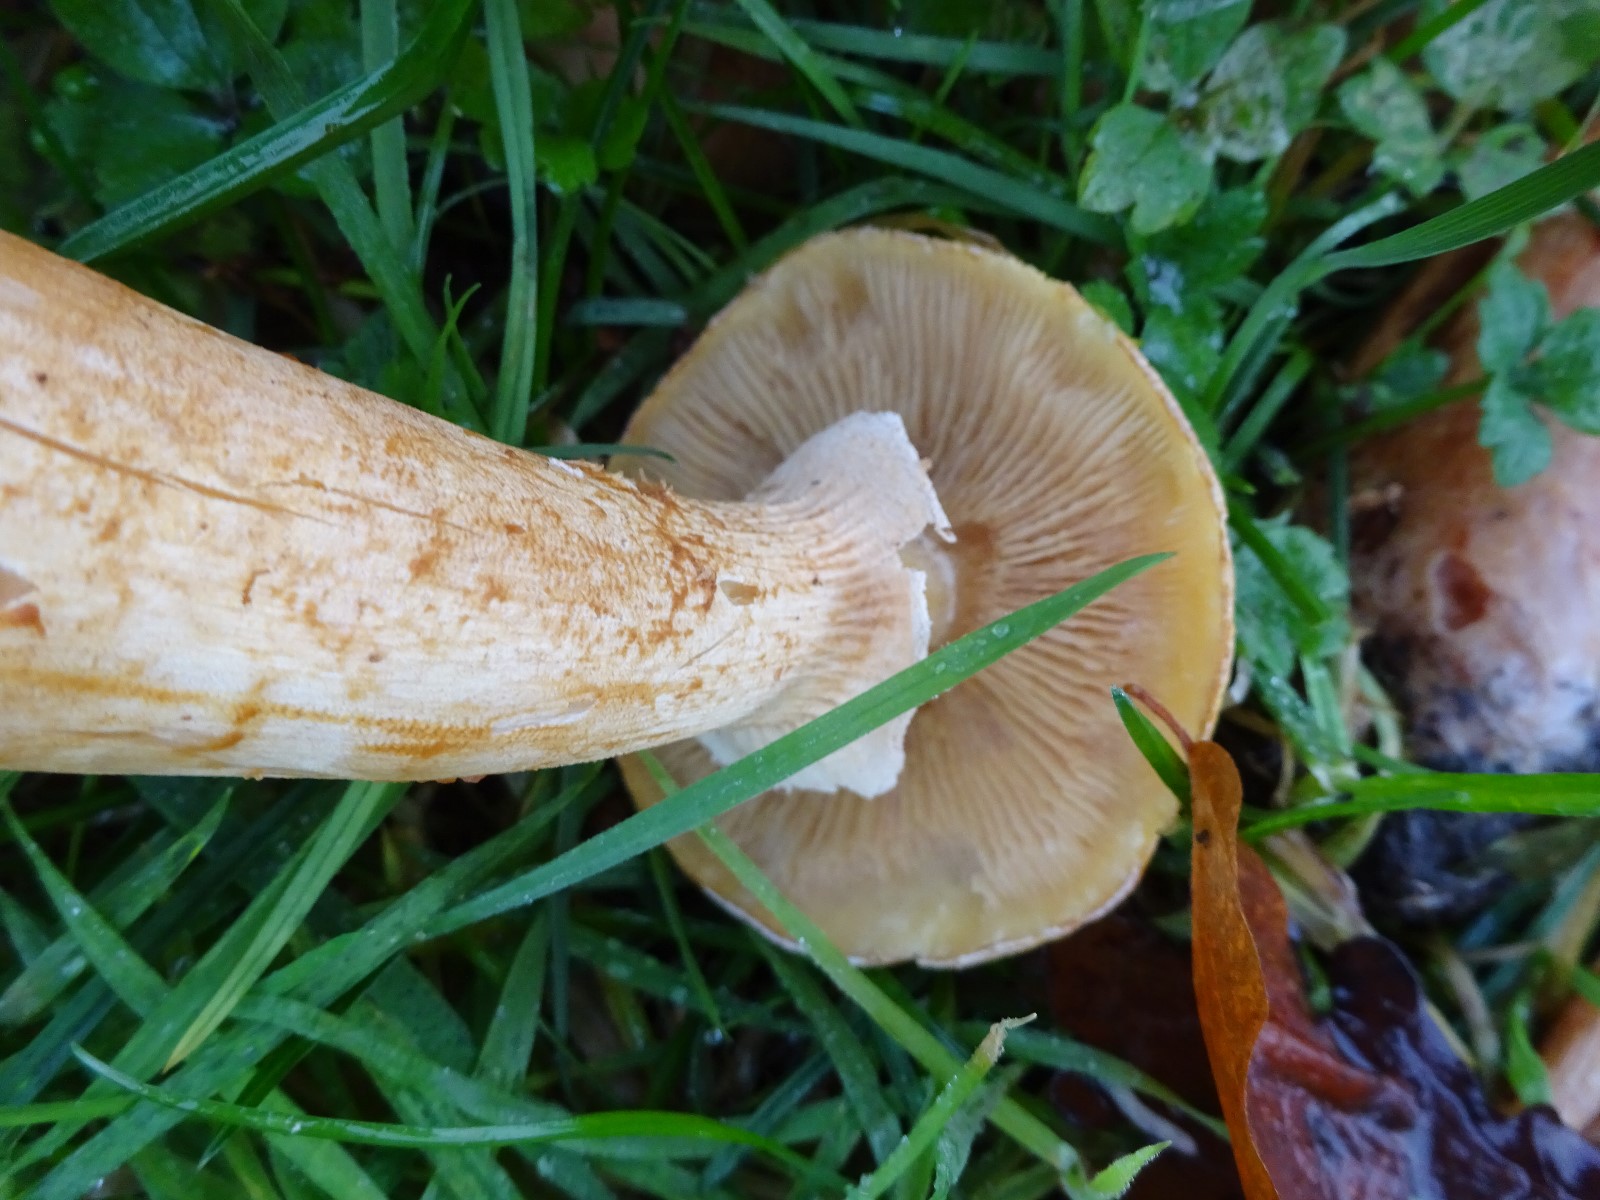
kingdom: Fungi
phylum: Basidiomycota
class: Agaricomycetes
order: Agaricales
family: Tricholomataceae
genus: Phaeolepiota
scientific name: Phaeolepiota aurea
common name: gyldenhat
